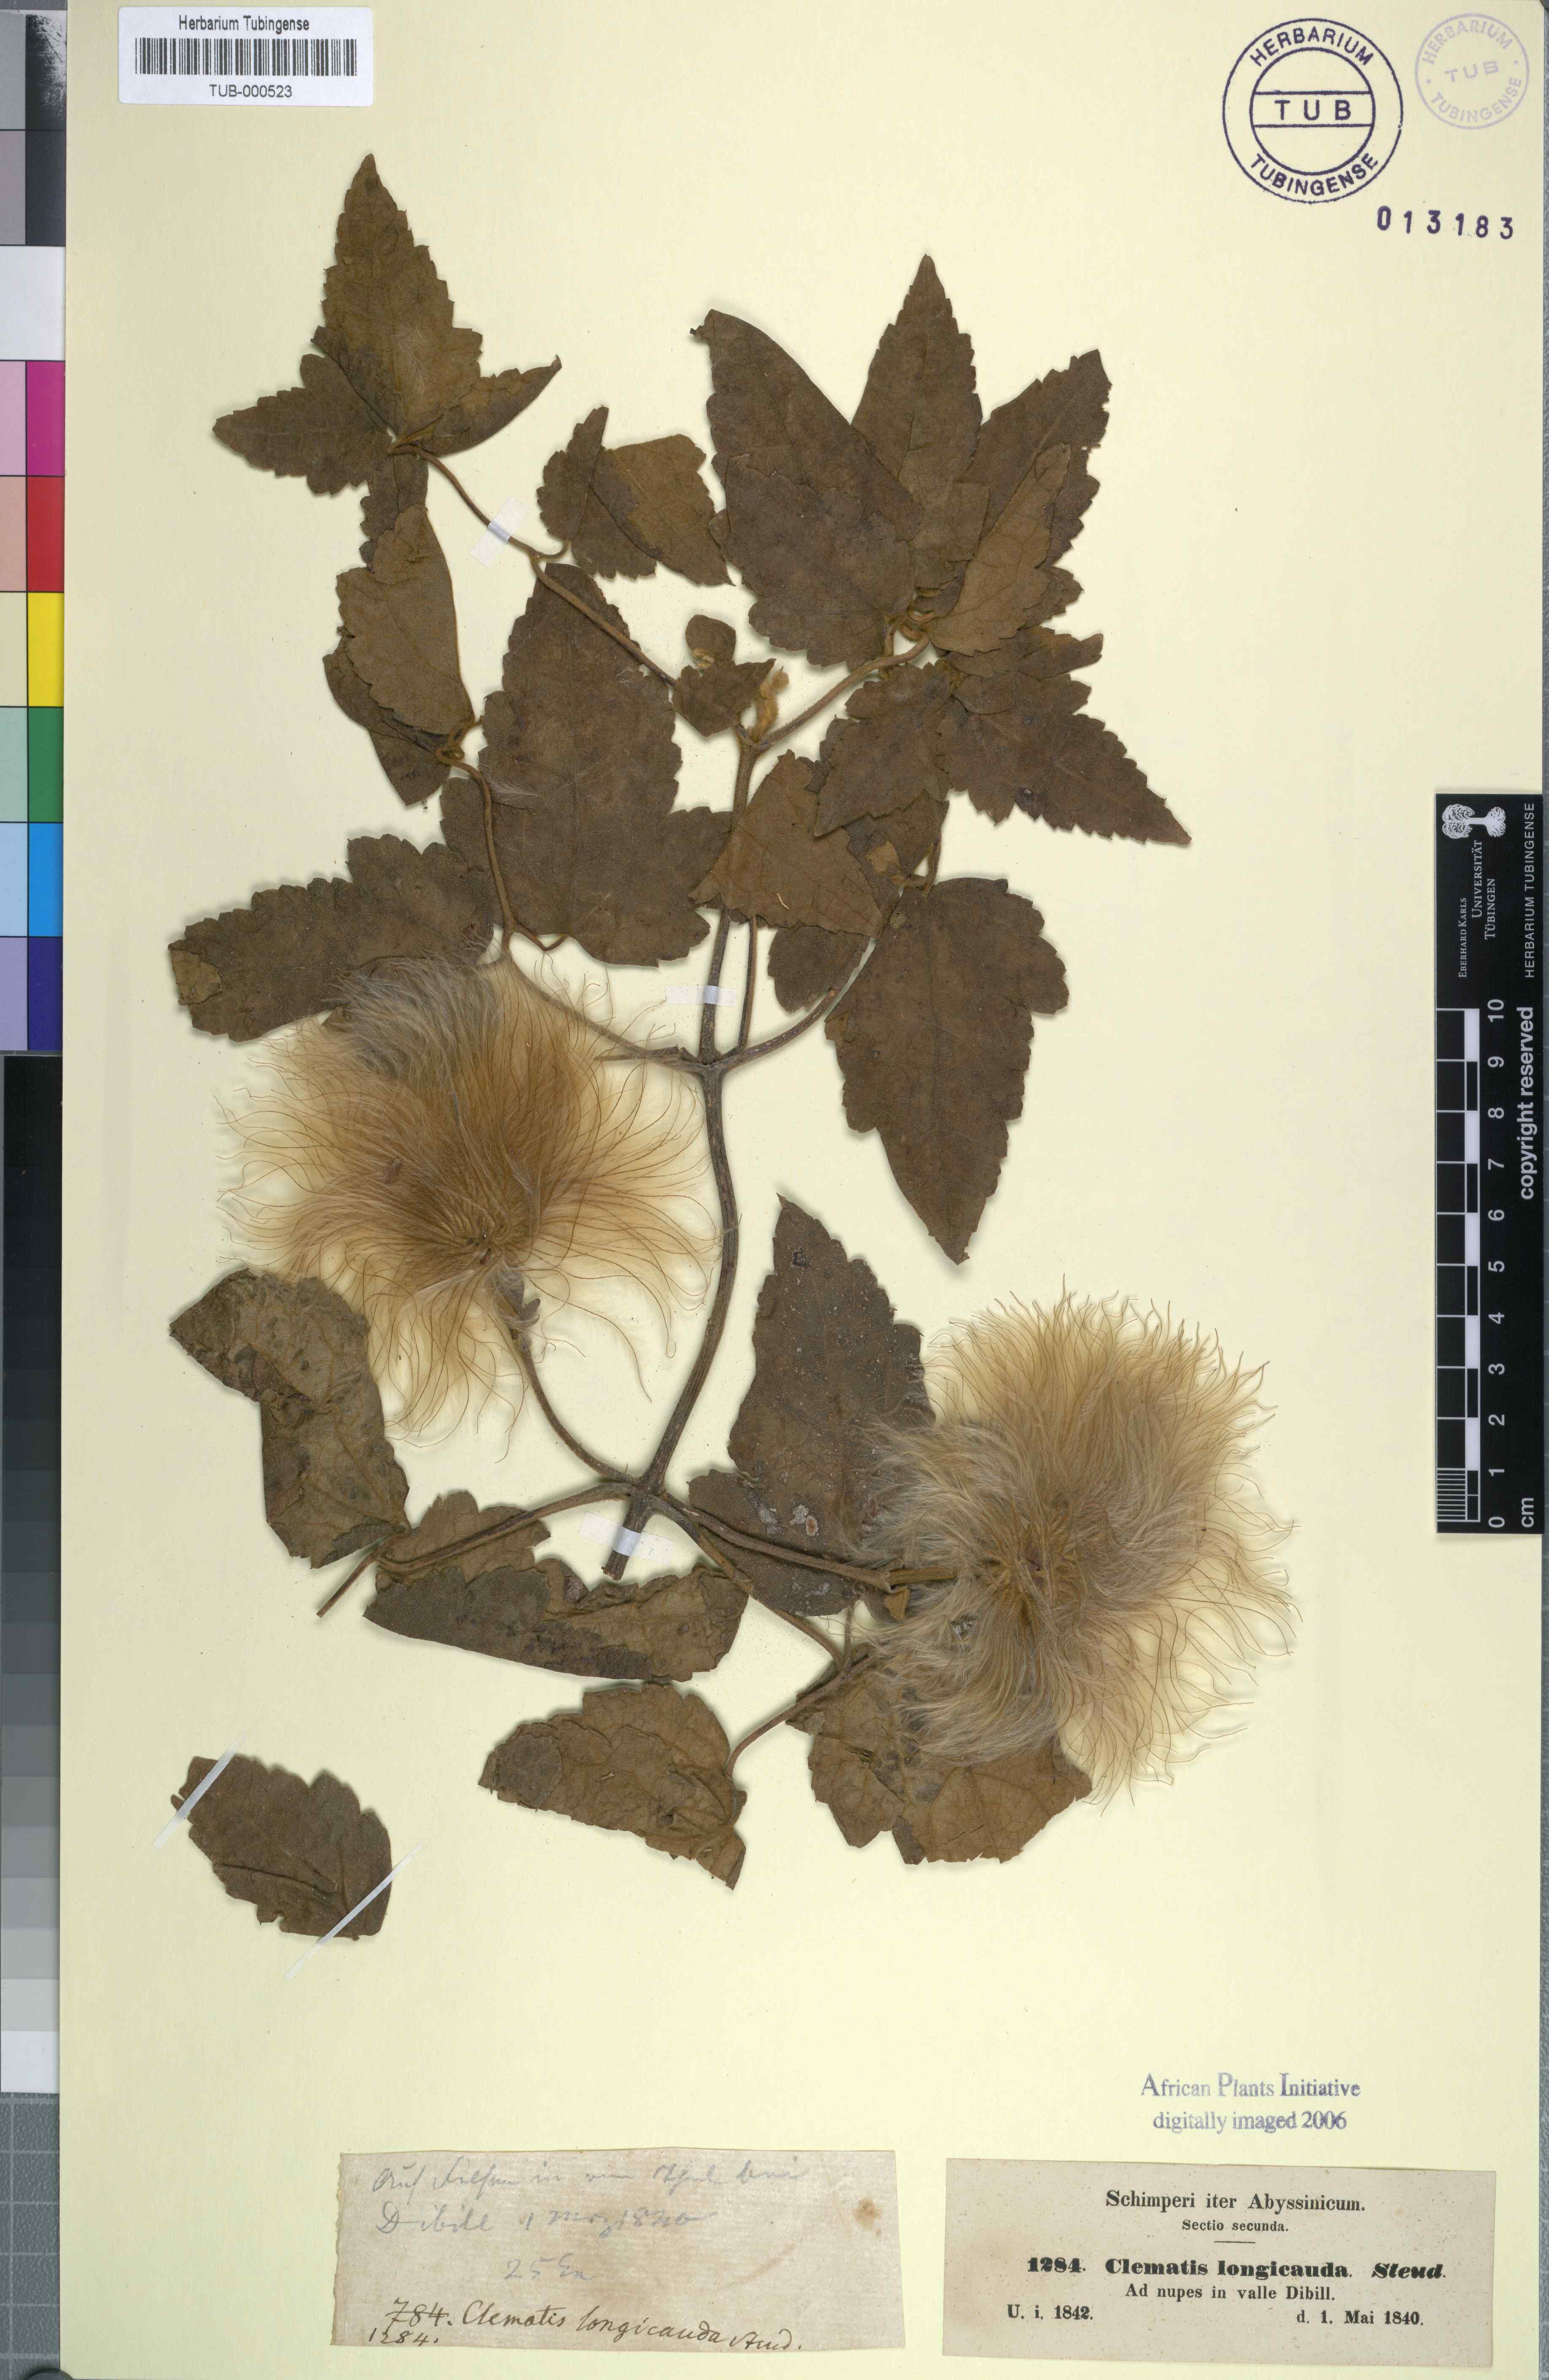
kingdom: Plantae
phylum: Tracheophyta
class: Magnoliopsida
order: Ranunculales
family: Ranunculaceae
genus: Clematis
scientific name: Clematis grandiflora
